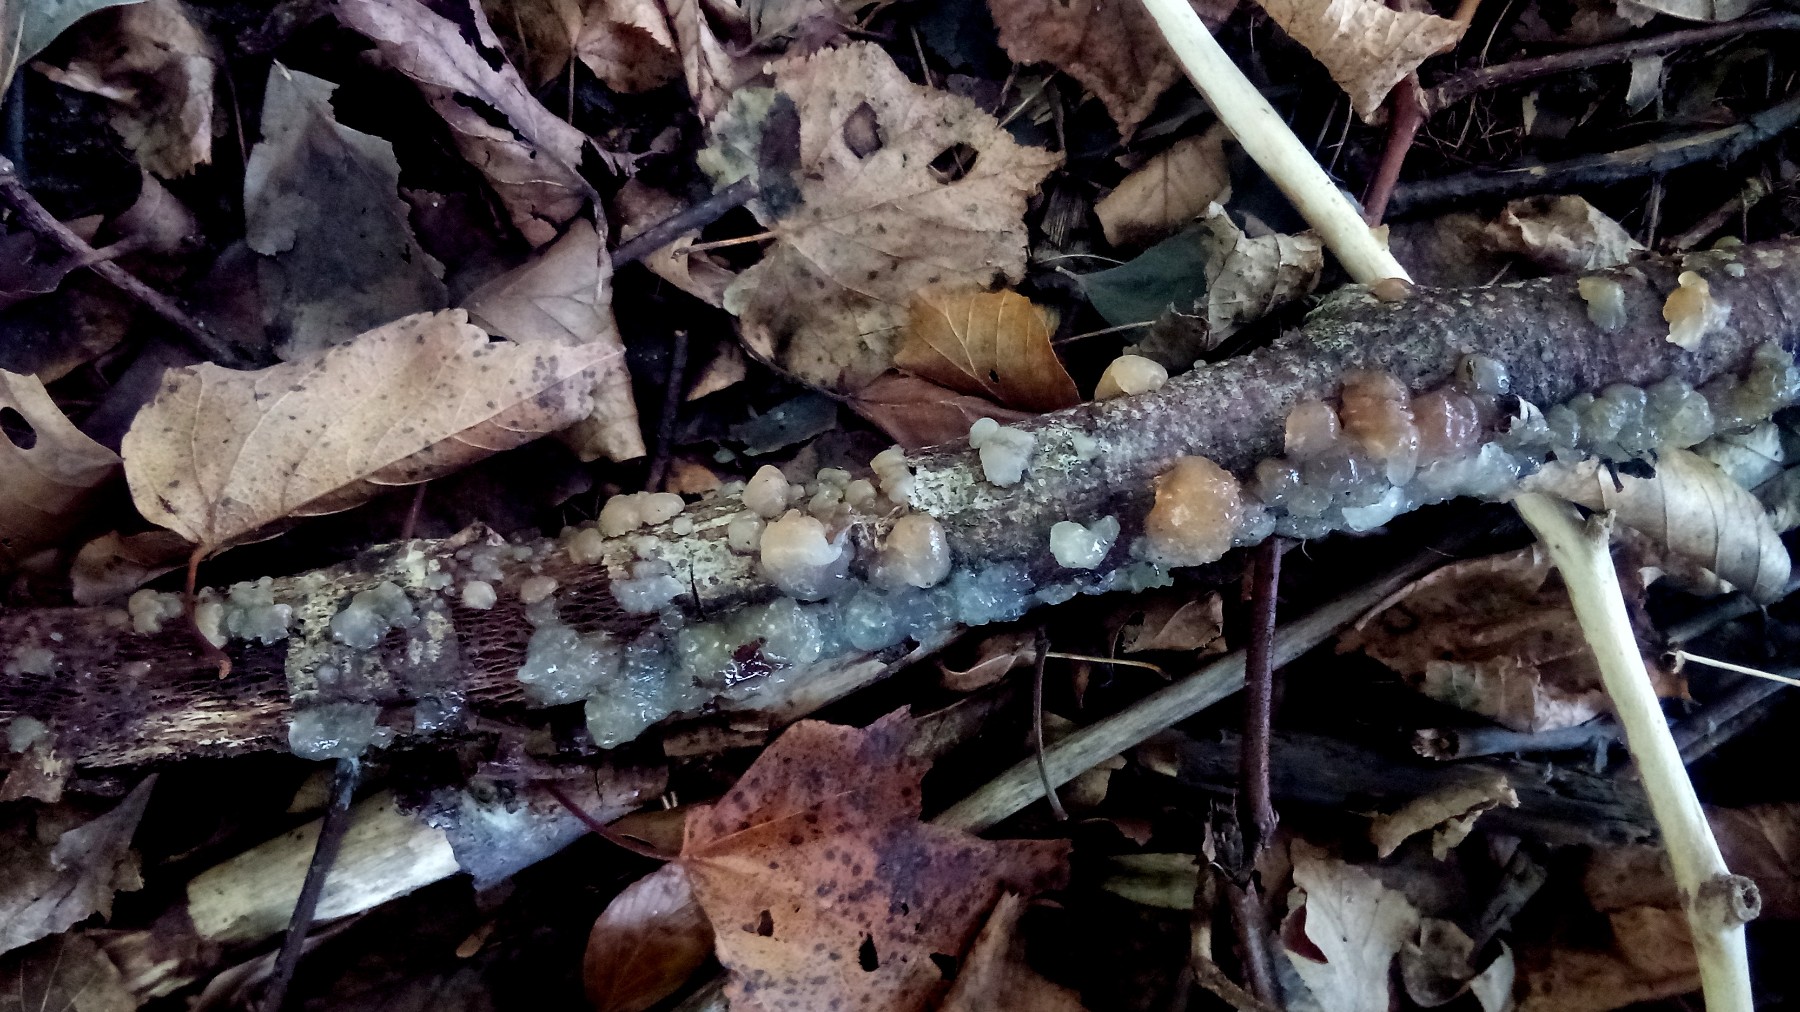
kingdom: Fungi
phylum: Basidiomycota
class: Agaricomycetes
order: Auriculariales
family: Hyaloriaceae
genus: Myxarium
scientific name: Myxarium nucleatum
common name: klar bævretop
